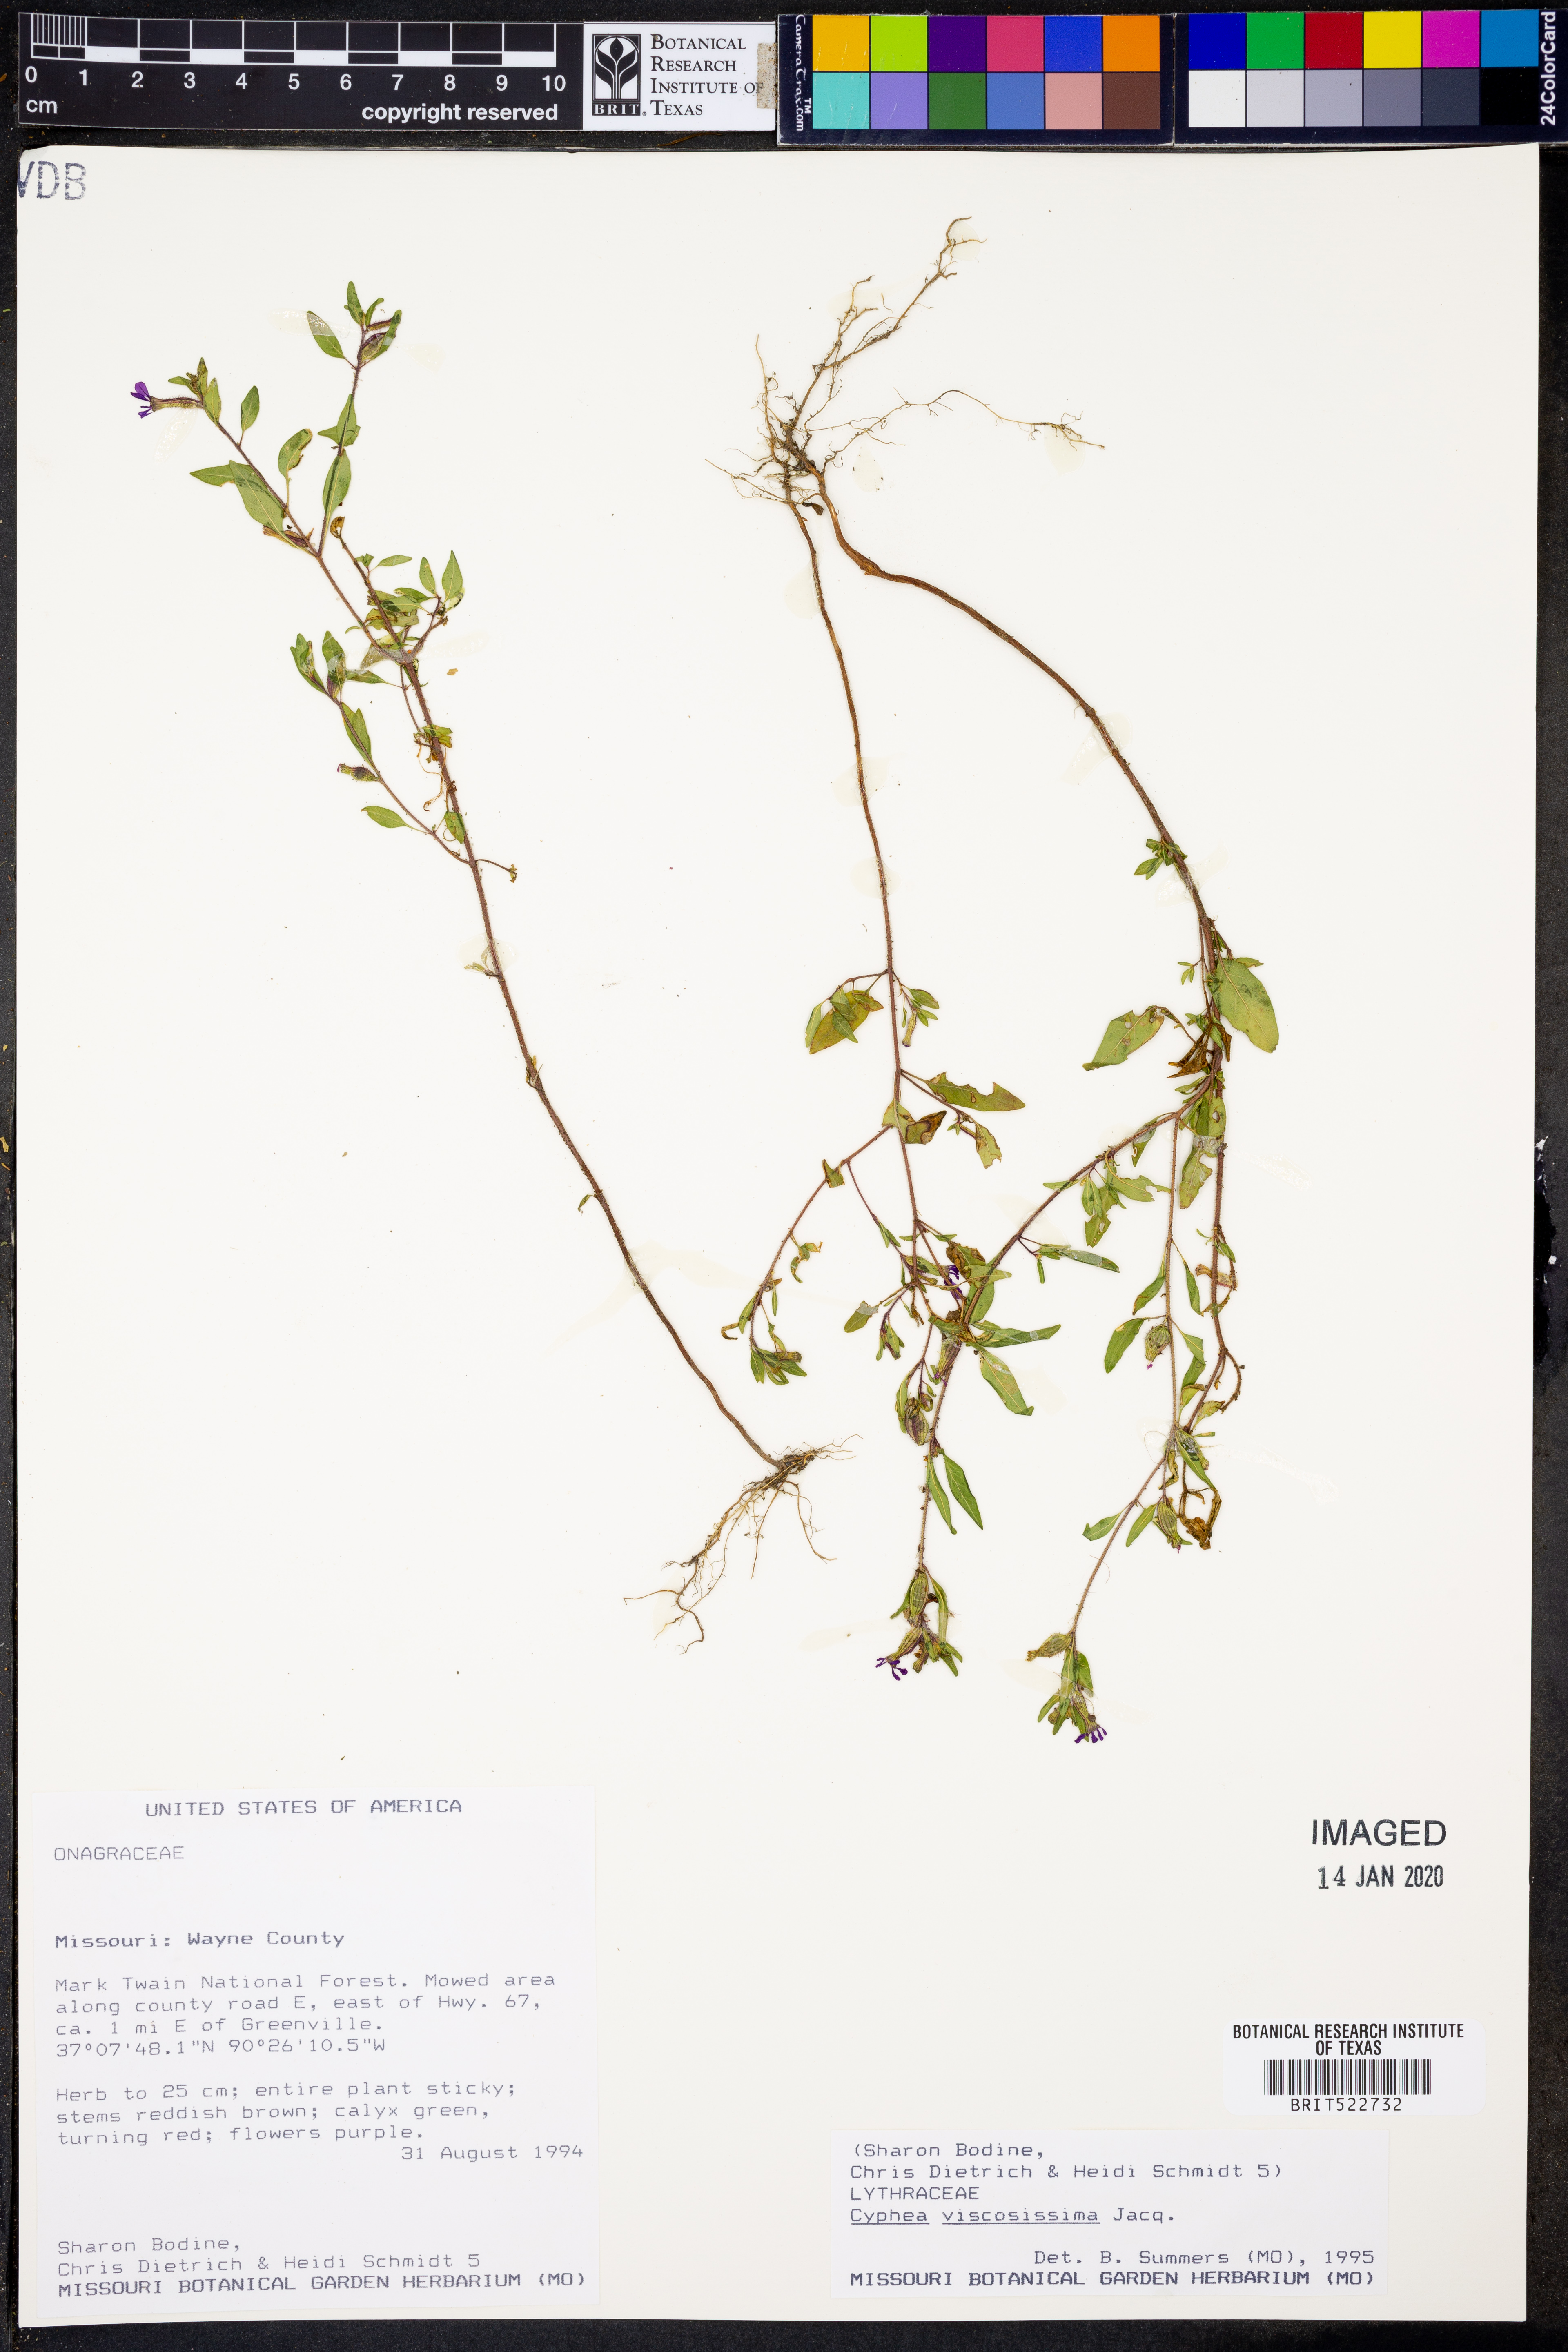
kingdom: Plantae
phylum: Tracheophyta
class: Magnoliopsida
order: Myrtales
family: Lythraceae
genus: Cuphea
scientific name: Cuphea viscosissima
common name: Clammy cuphea
